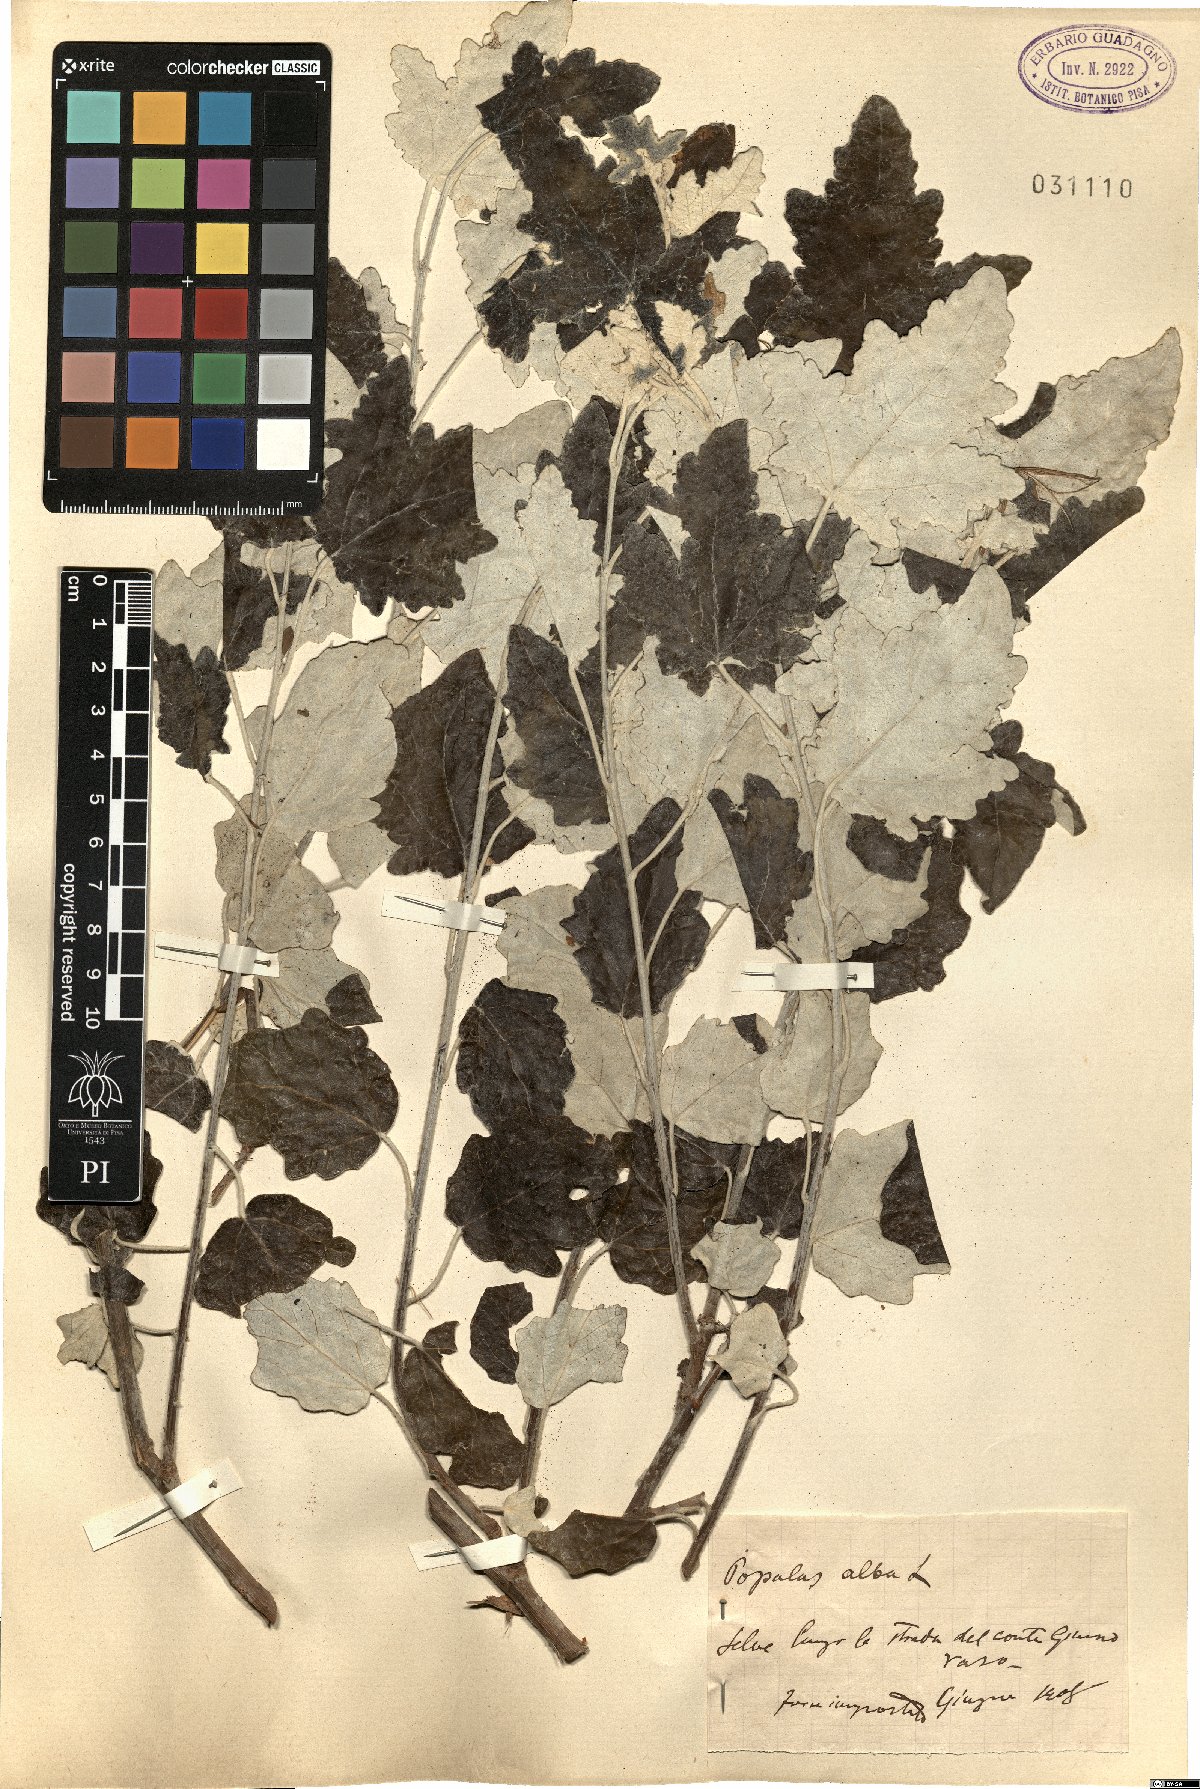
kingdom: Plantae
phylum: Tracheophyta
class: Magnoliopsida
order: Malpighiales
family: Salicaceae
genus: Populus
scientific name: Populus alba
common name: White poplar
